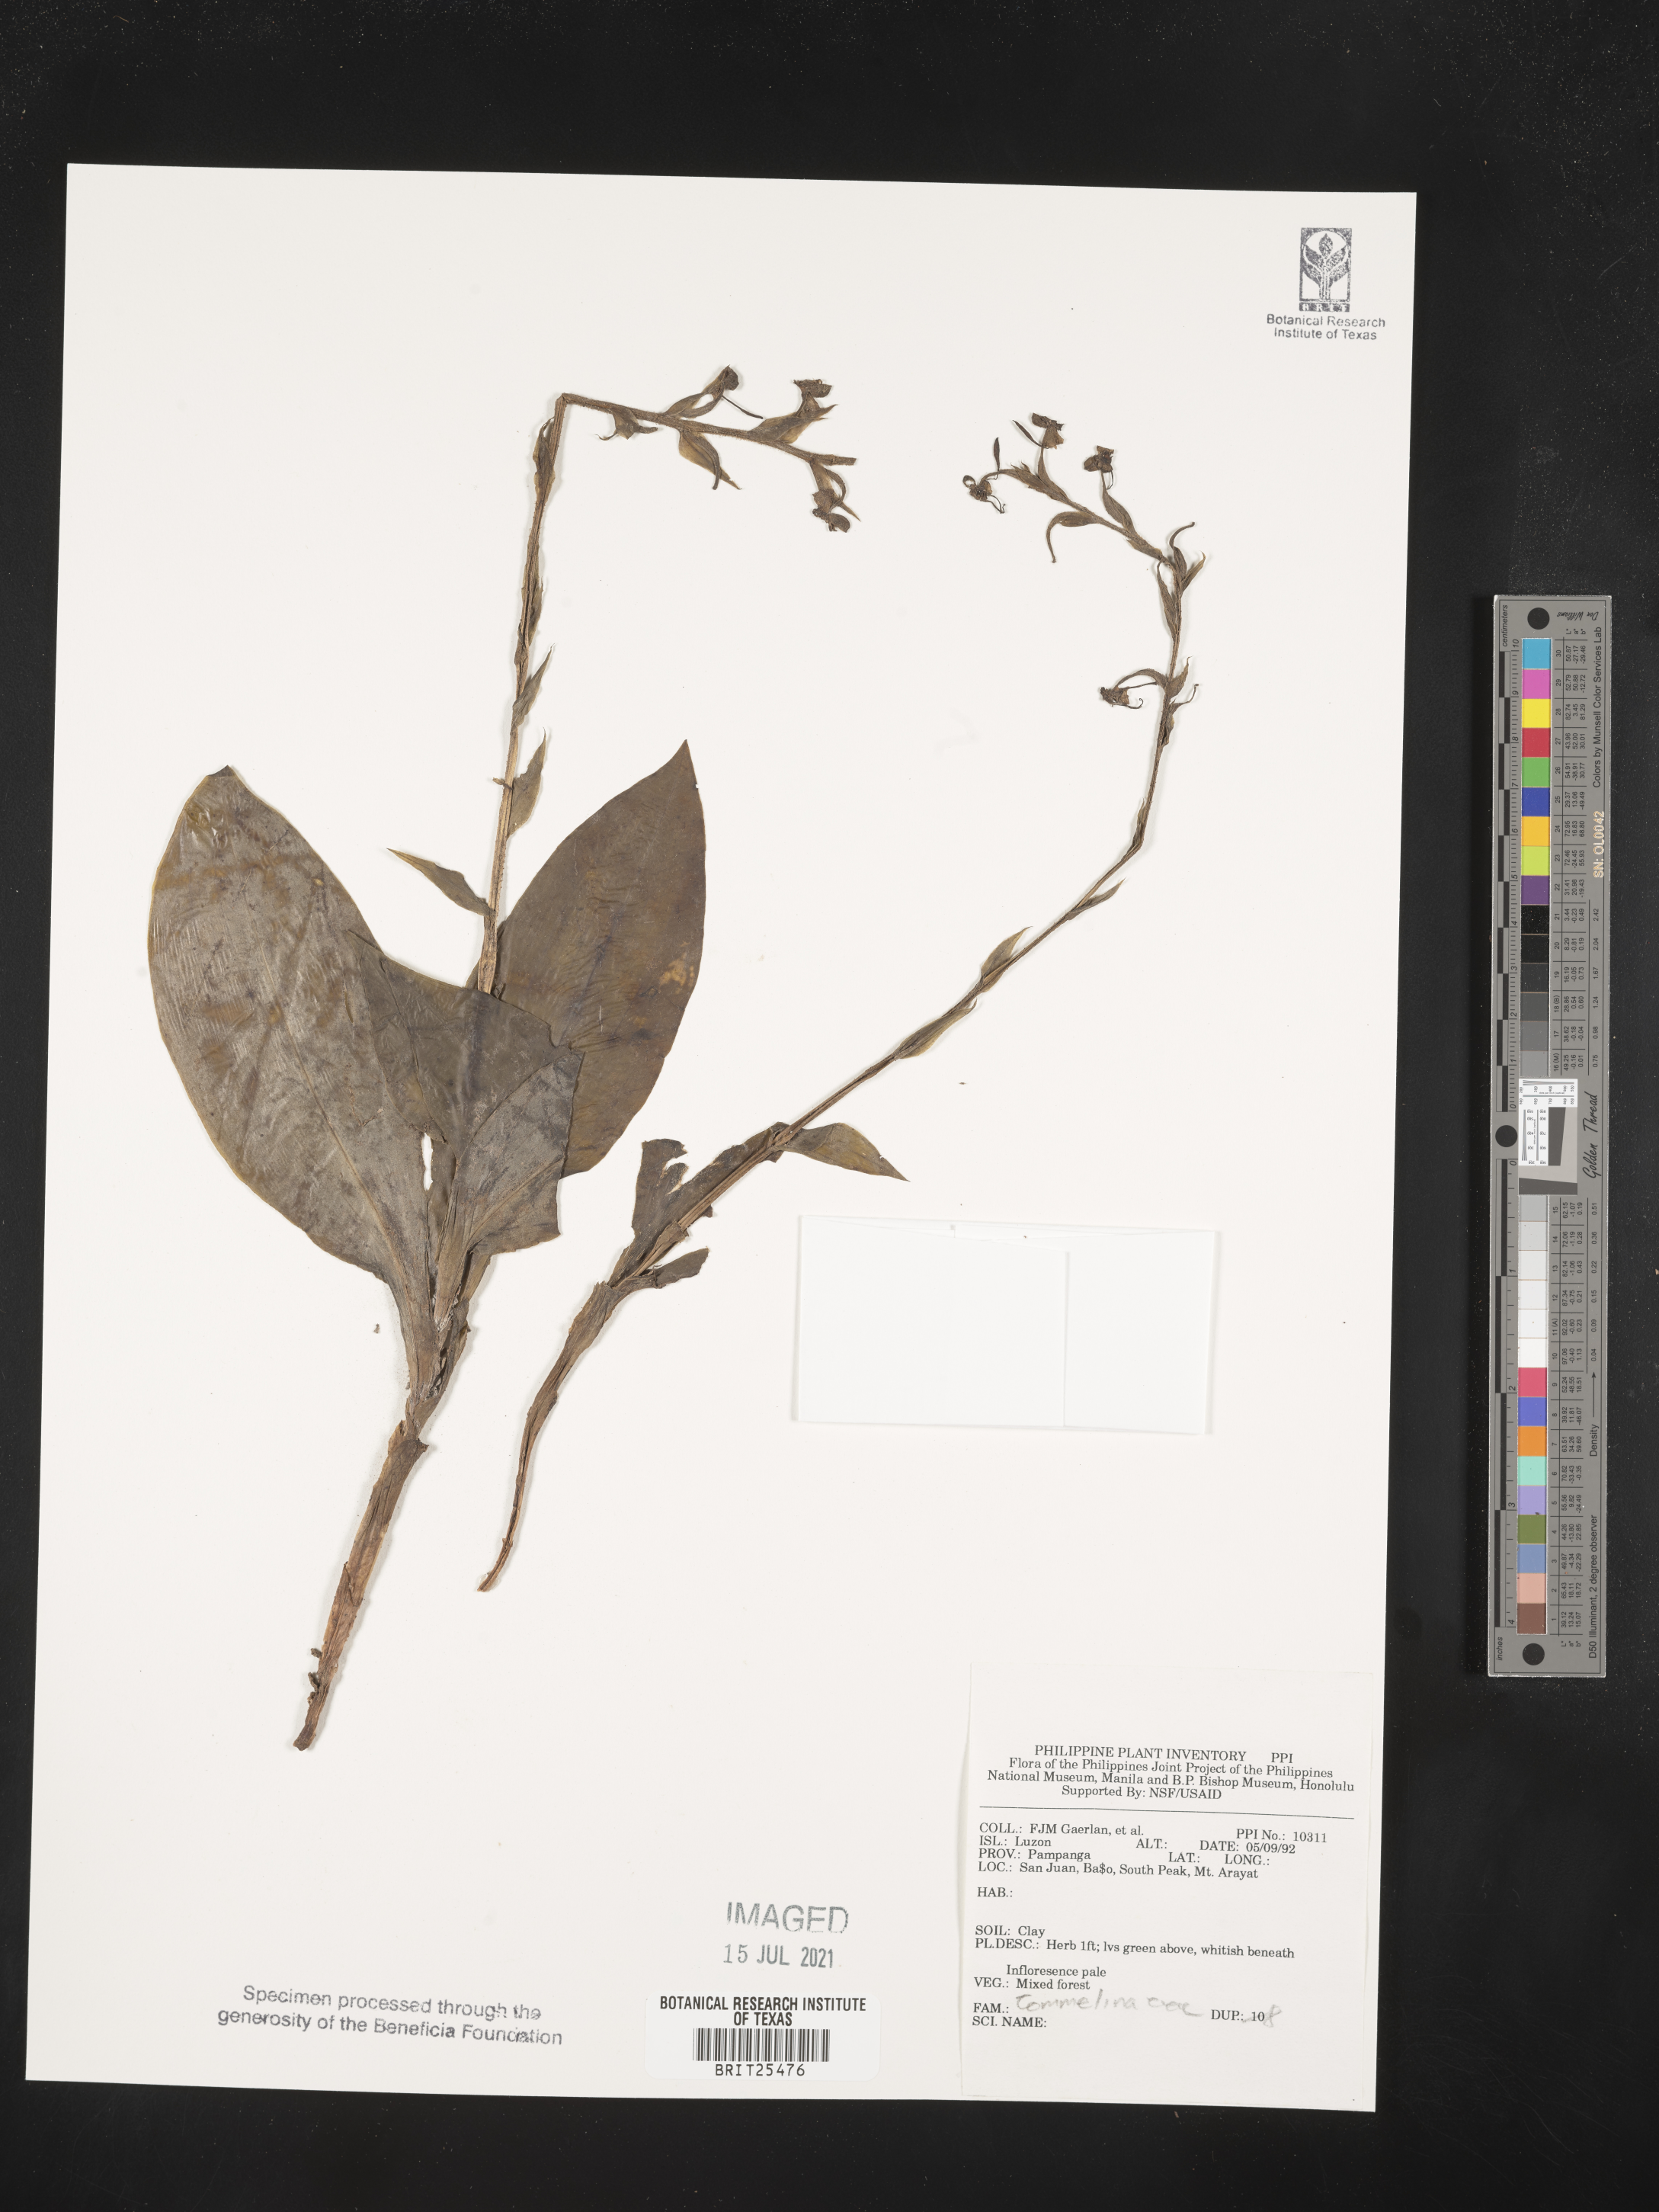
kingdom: Plantae
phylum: Tracheophyta
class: Liliopsida
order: Commelinales
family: Commelinaceae
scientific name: Commelinaceae
